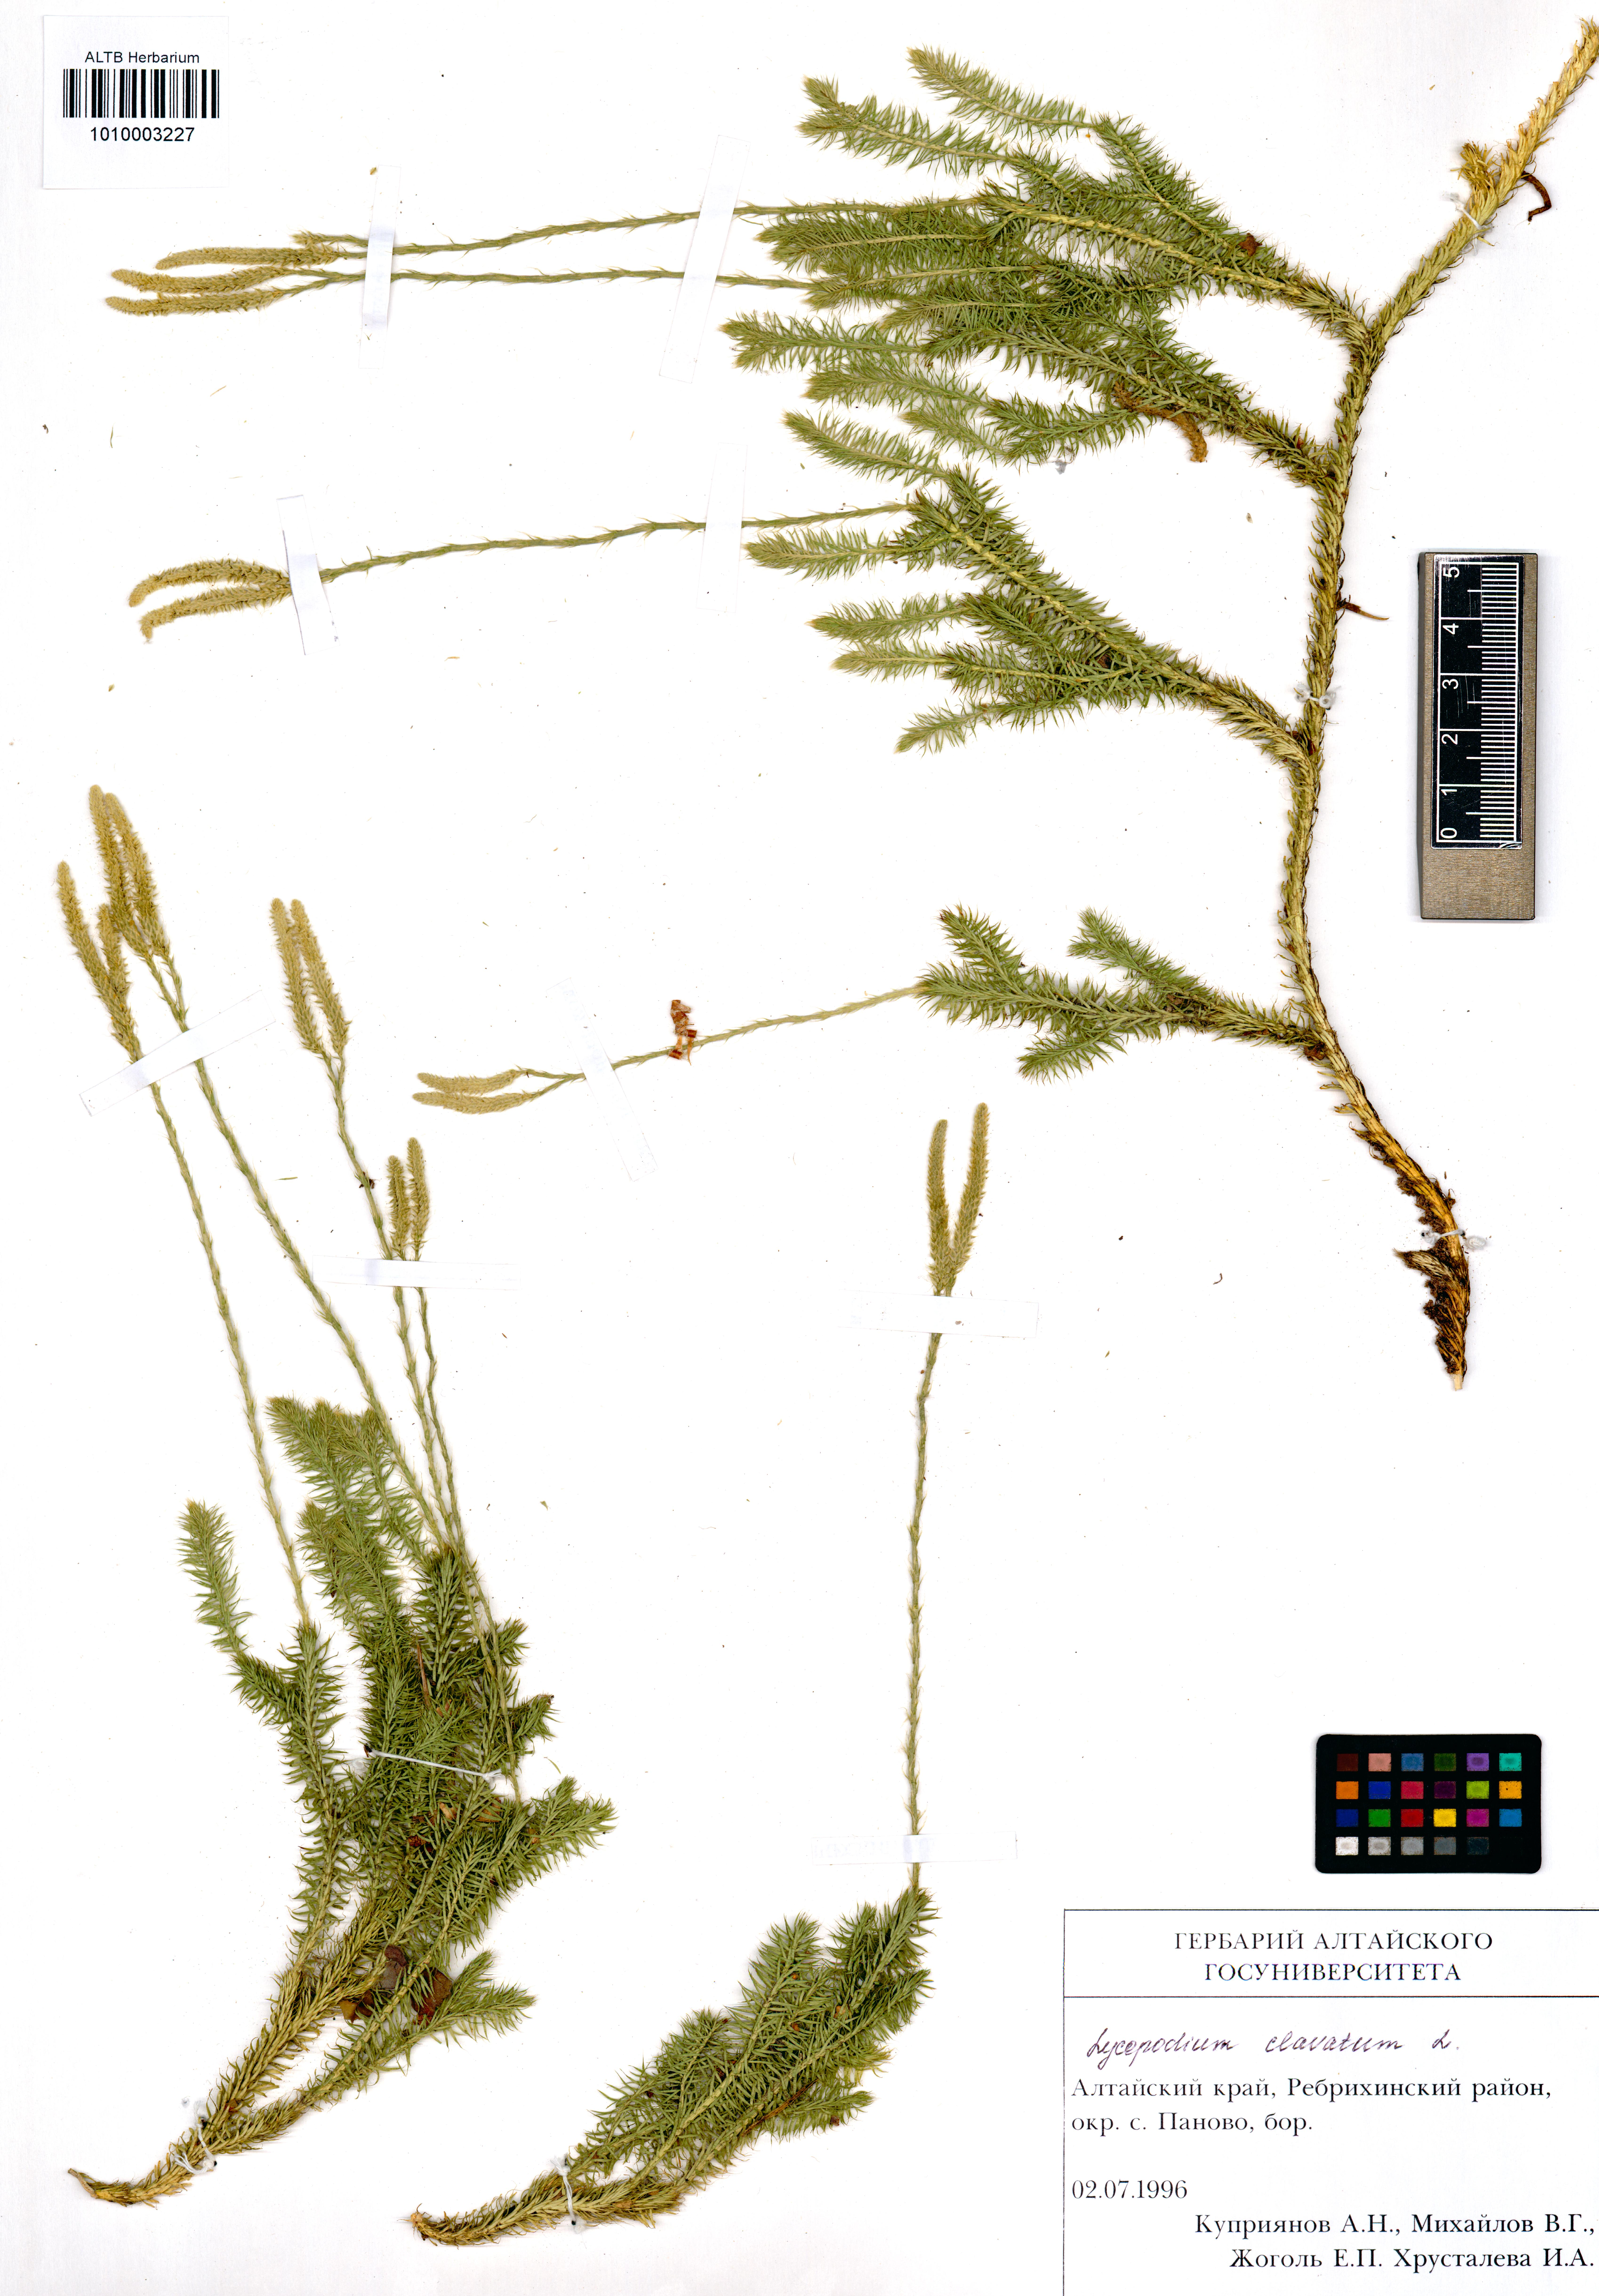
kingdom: Plantae
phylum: Tracheophyta
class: Lycopodiopsida
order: Lycopodiales
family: Lycopodiaceae
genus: Lycopodium
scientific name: Lycopodium clavatum
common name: Stag's-horn clubmoss
